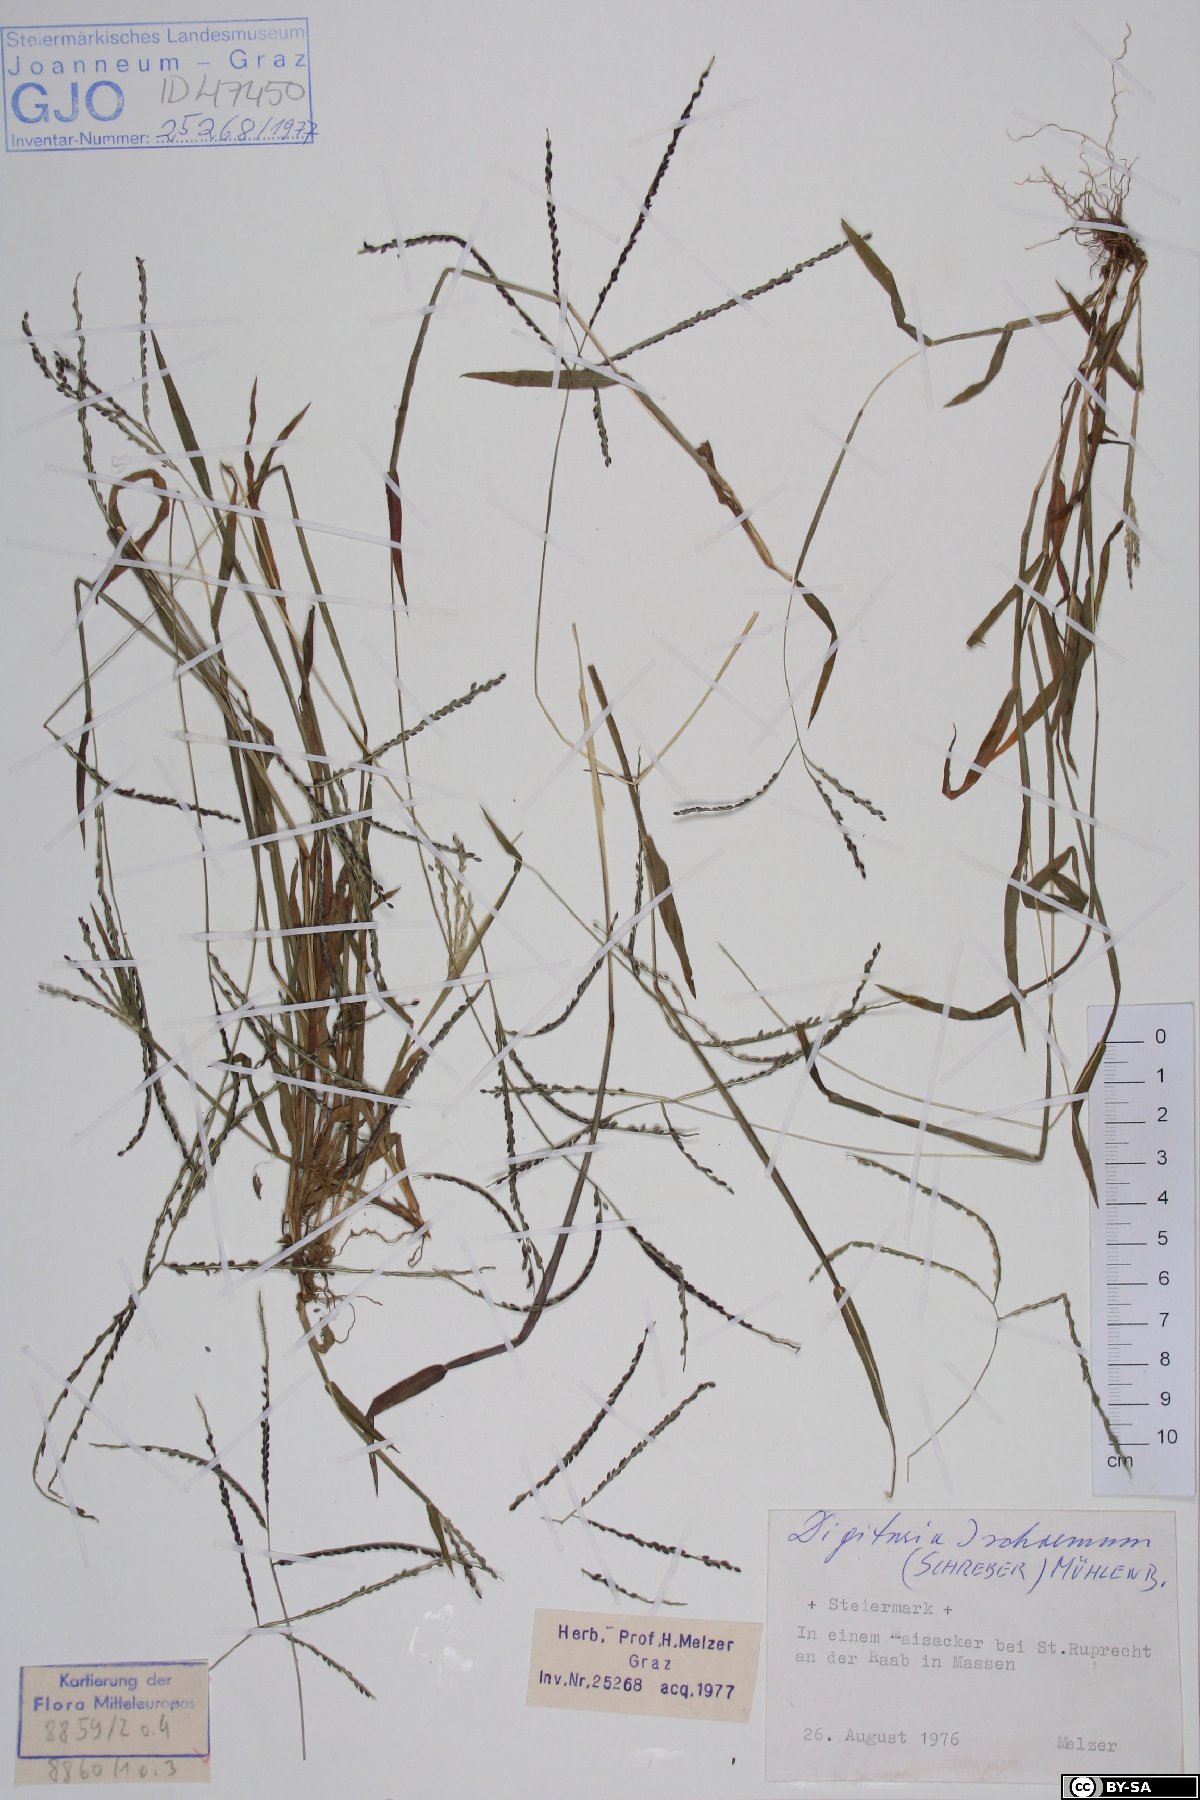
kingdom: Plantae
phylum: Tracheophyta
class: Liliopsida
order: Poales
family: Poaceae
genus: Digitaria
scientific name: Digitaria ischaemum
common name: Smooth crabgrass
